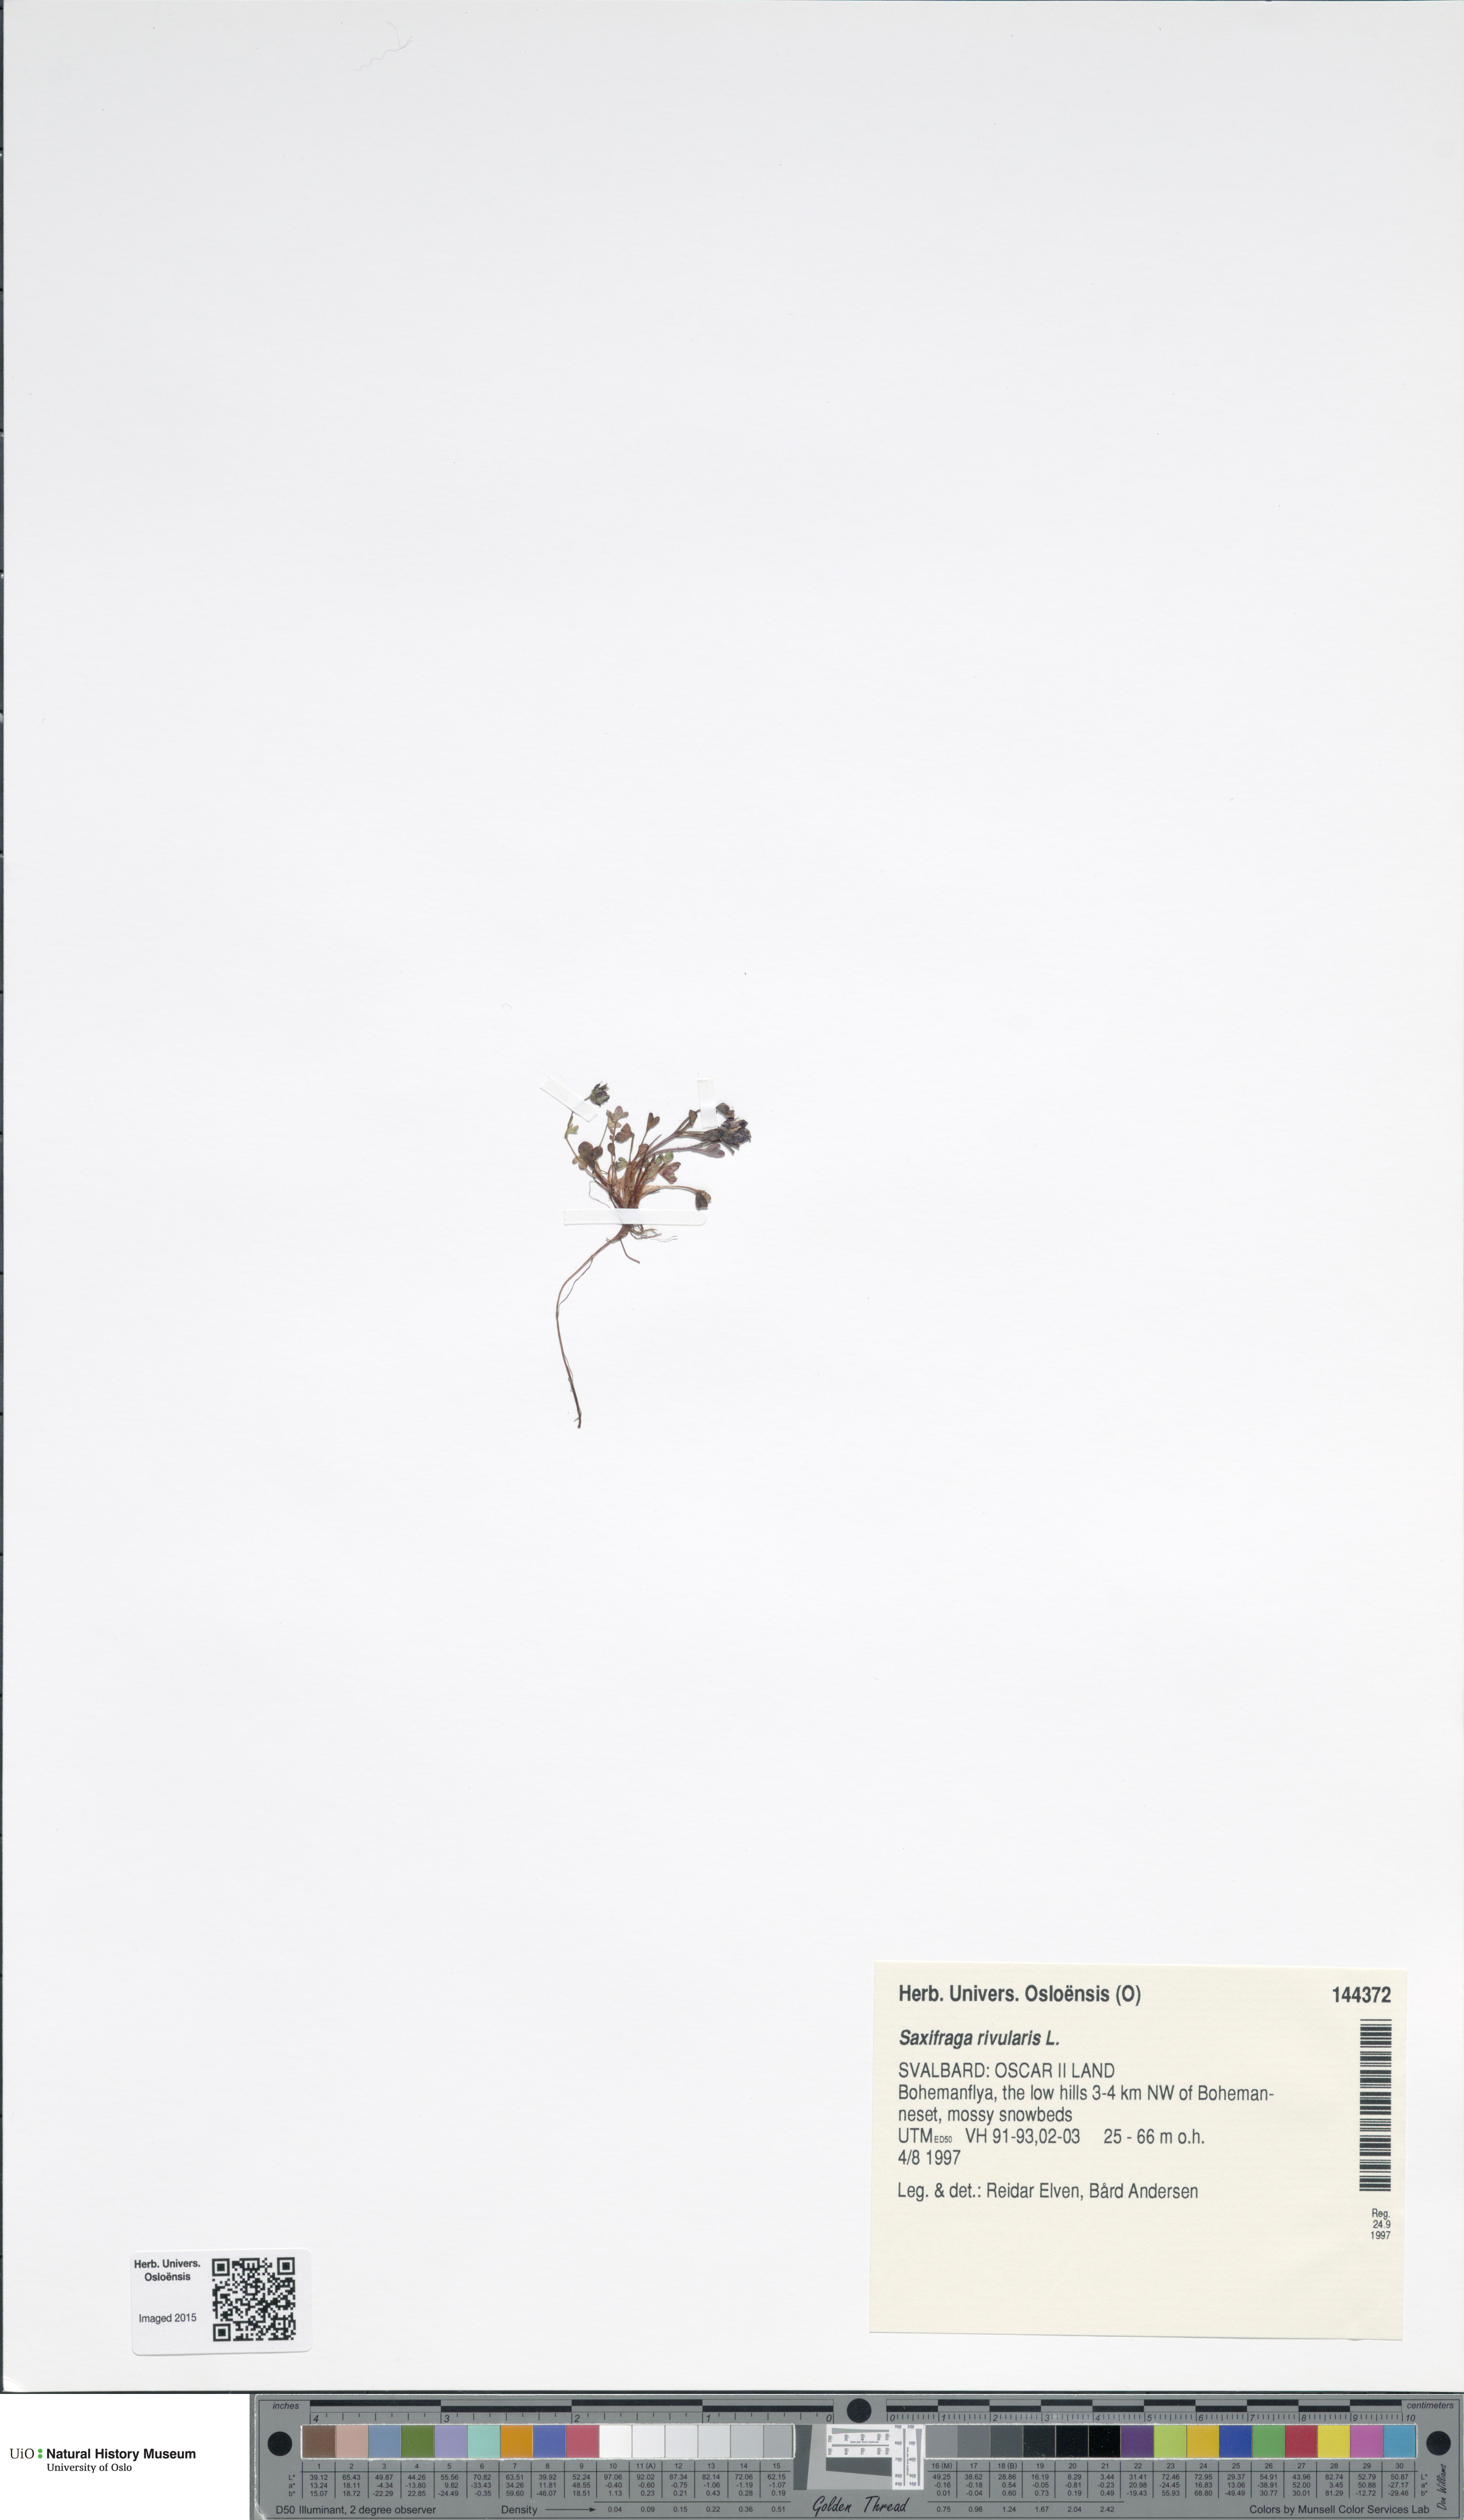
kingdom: Plantae
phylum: Tracheophyta
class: Magnoliopsida
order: Saxifragales
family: Saxifragaceae
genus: Saxifraga
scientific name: Saxifraga rivularis
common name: Highland saxifrage
